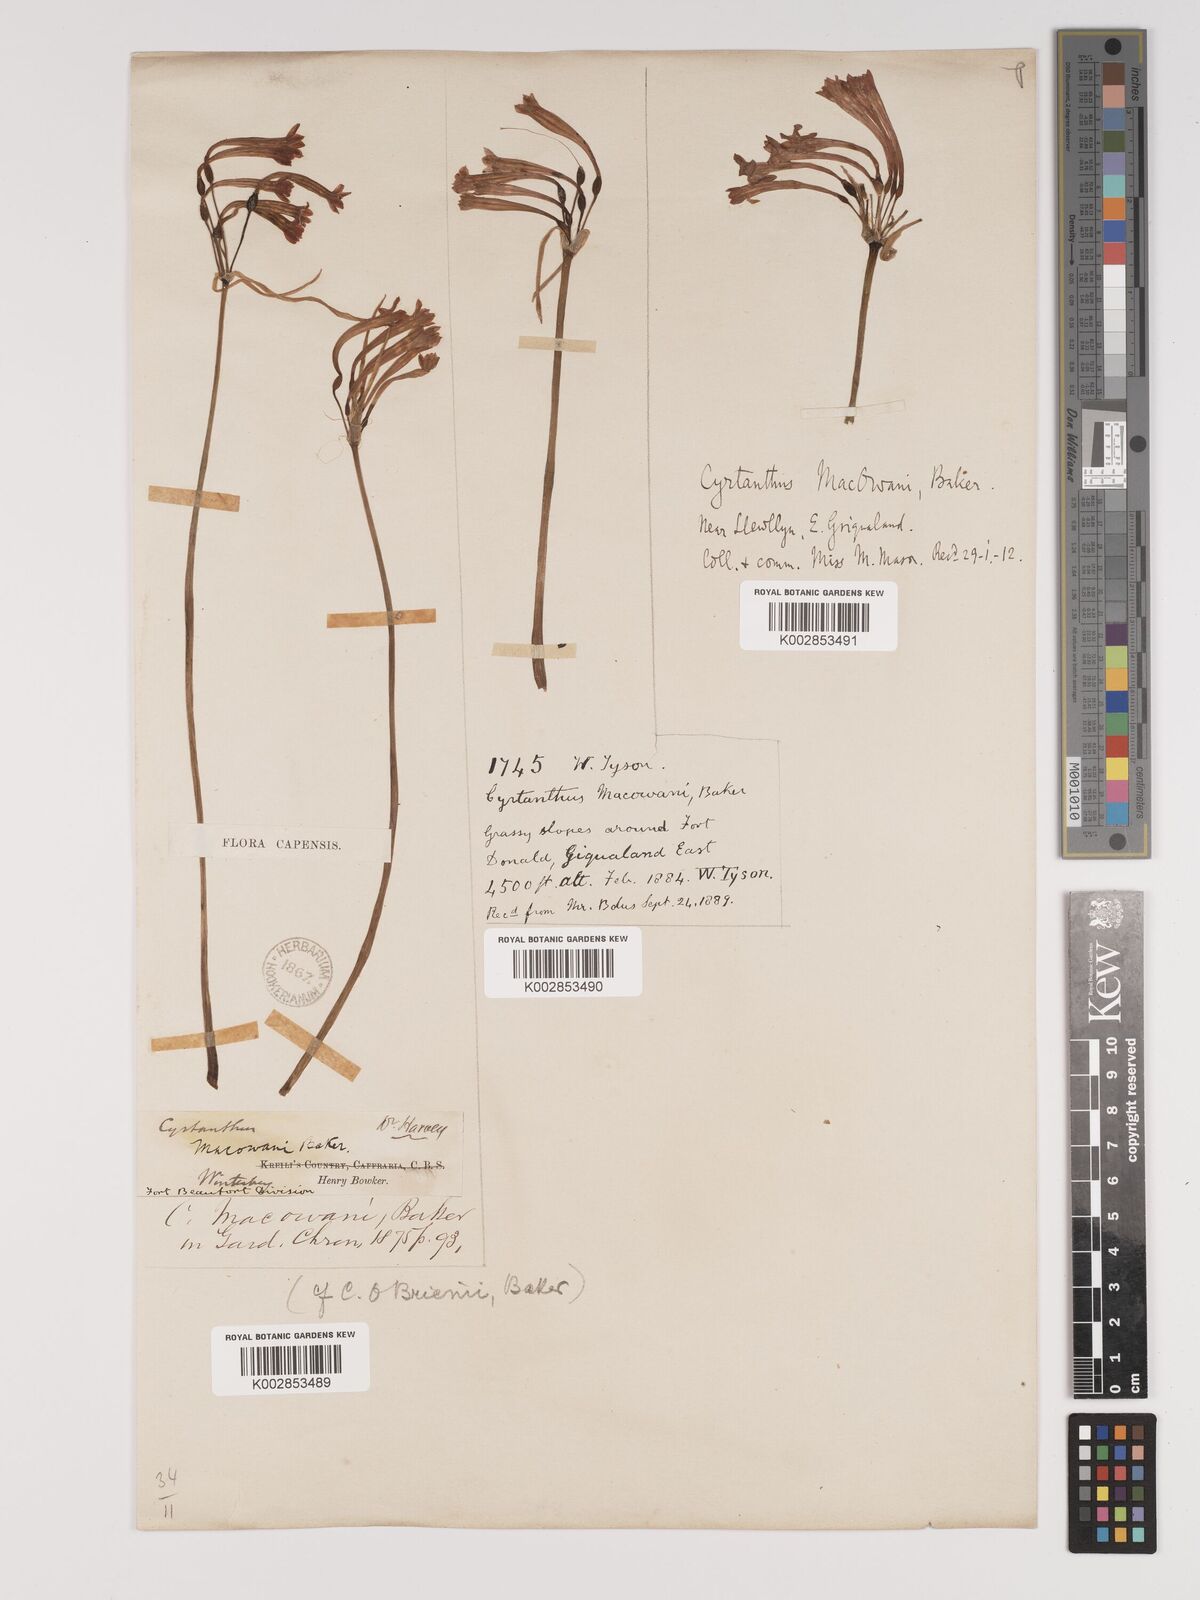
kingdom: Plantae
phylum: Tracheophyta
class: Liliopsida
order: Asparagales
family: Amaryllidaceae
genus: Cyrtanthus
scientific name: Cyrtanthus macowanii
